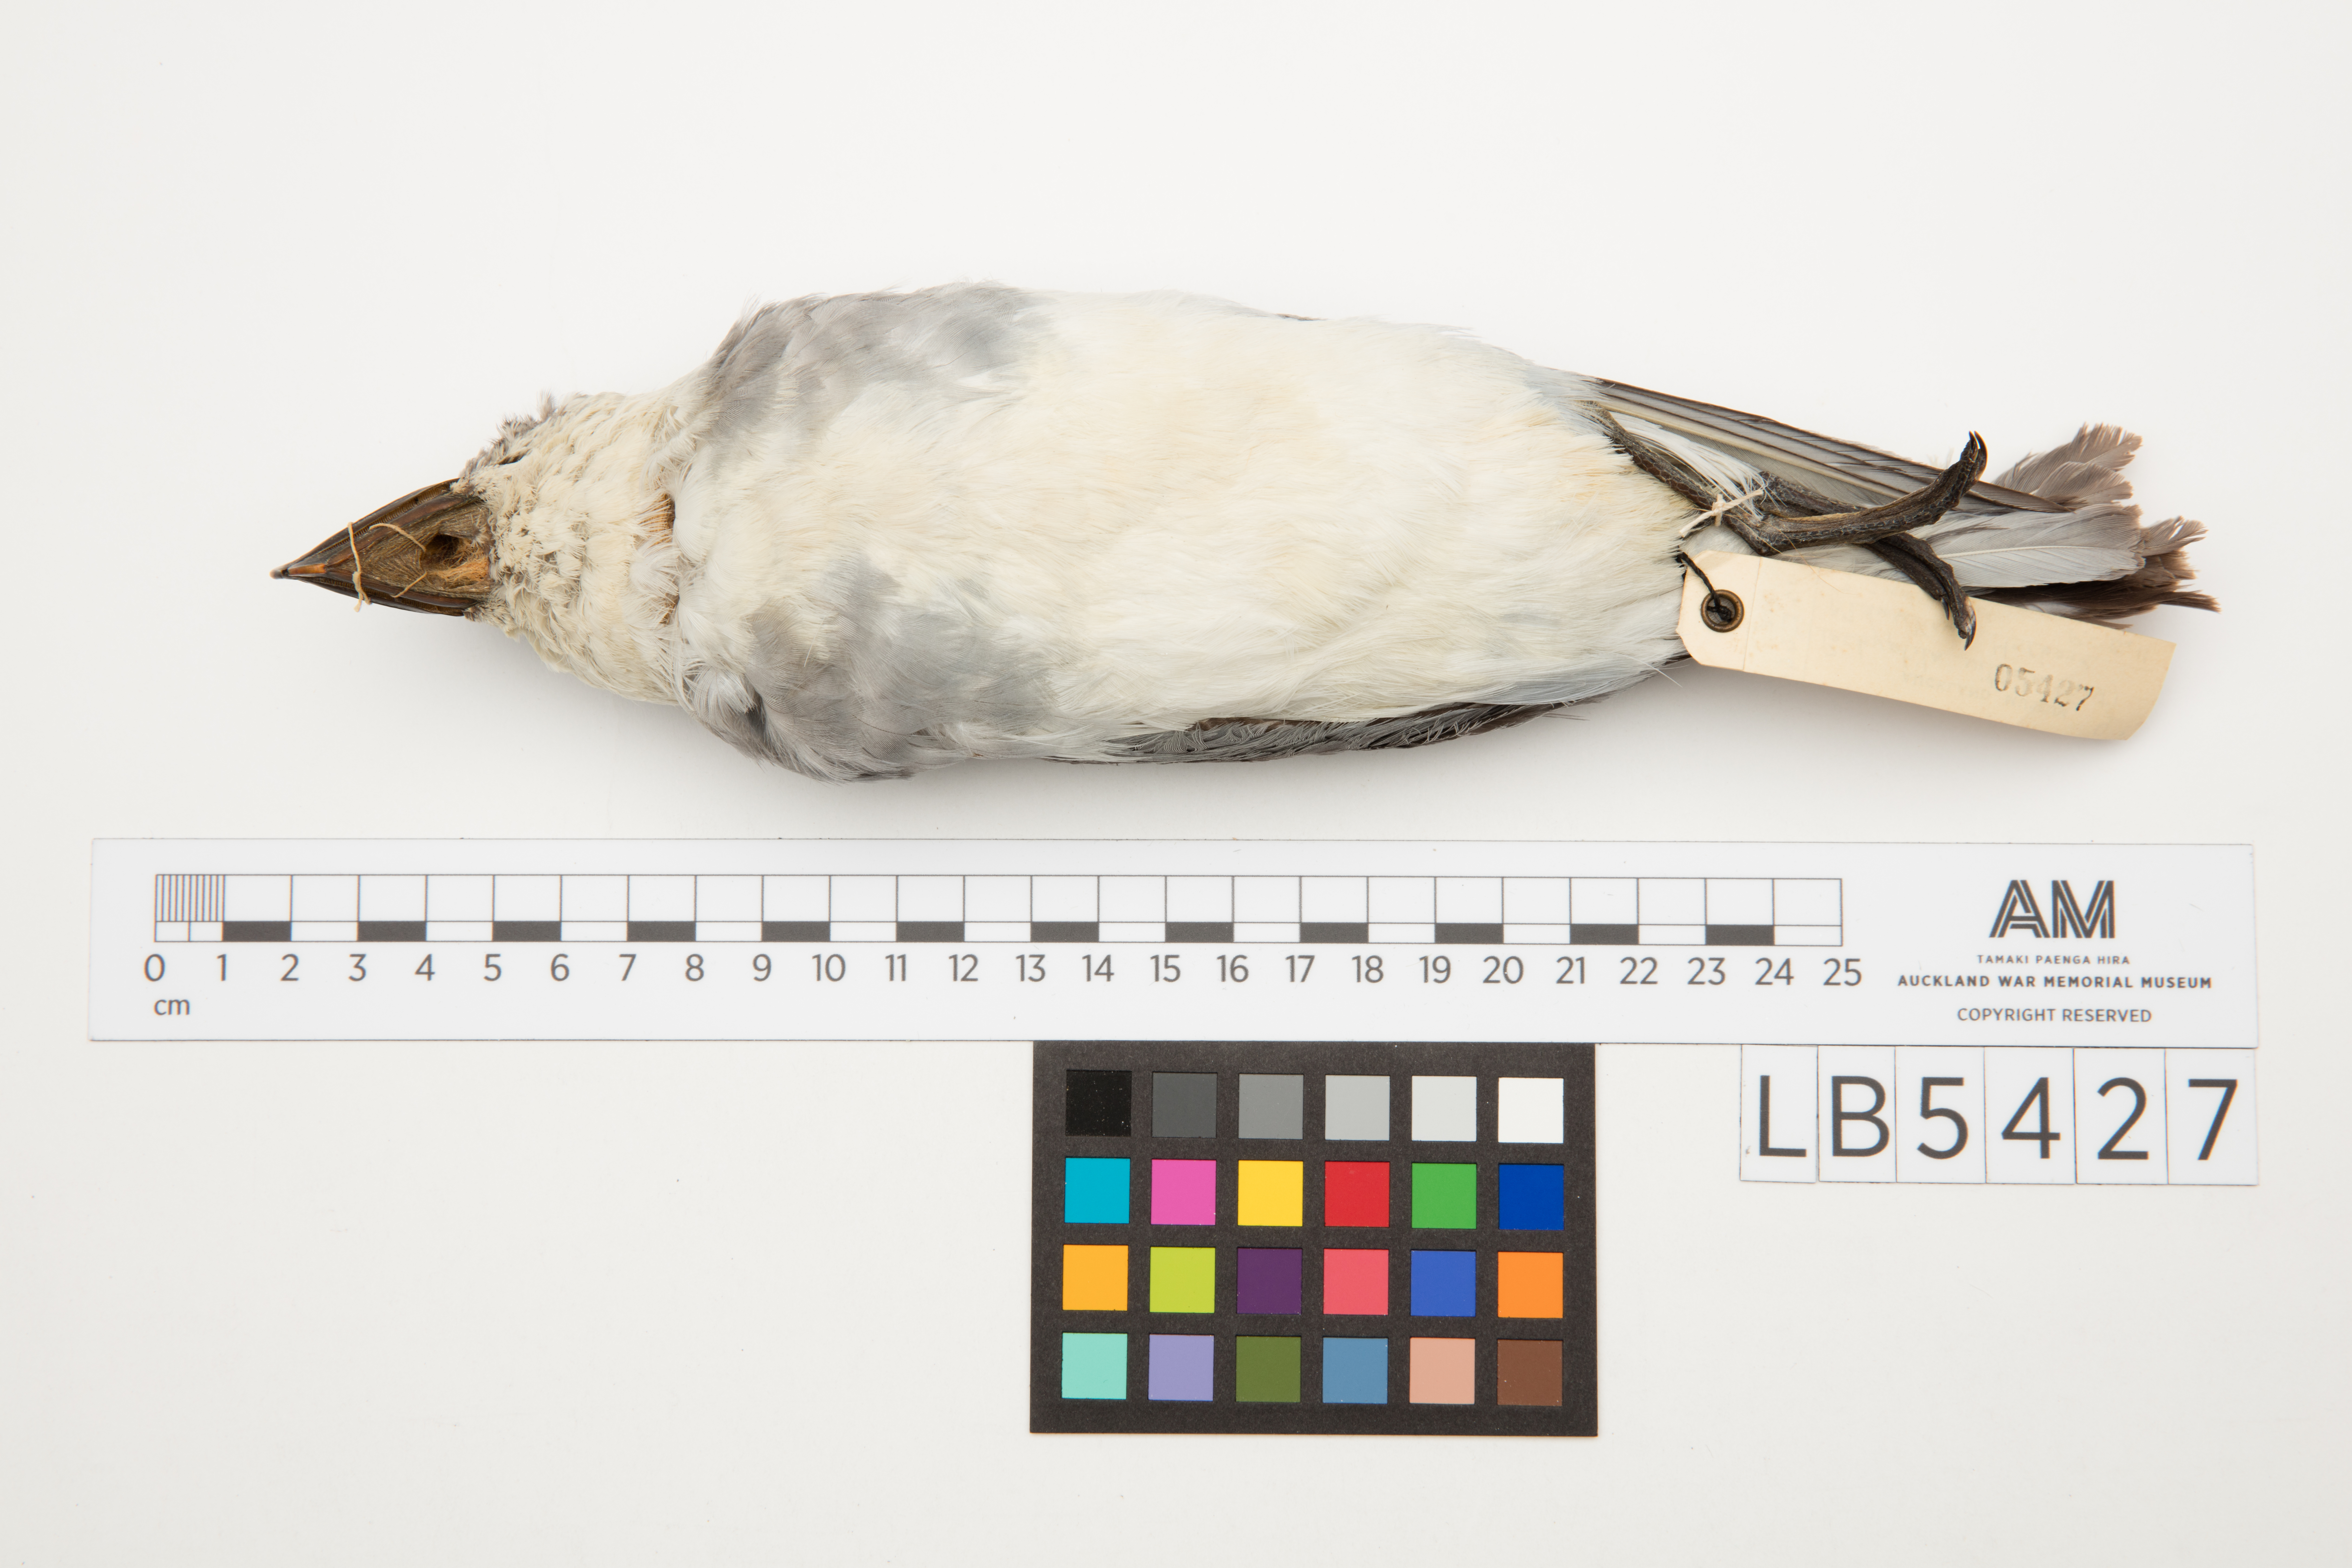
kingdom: Animalia
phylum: Chordata
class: Aves
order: Procellariiformes
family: Procellariidae
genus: Pachyptila
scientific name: Pachyptila vittata
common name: Broad-billed prion
